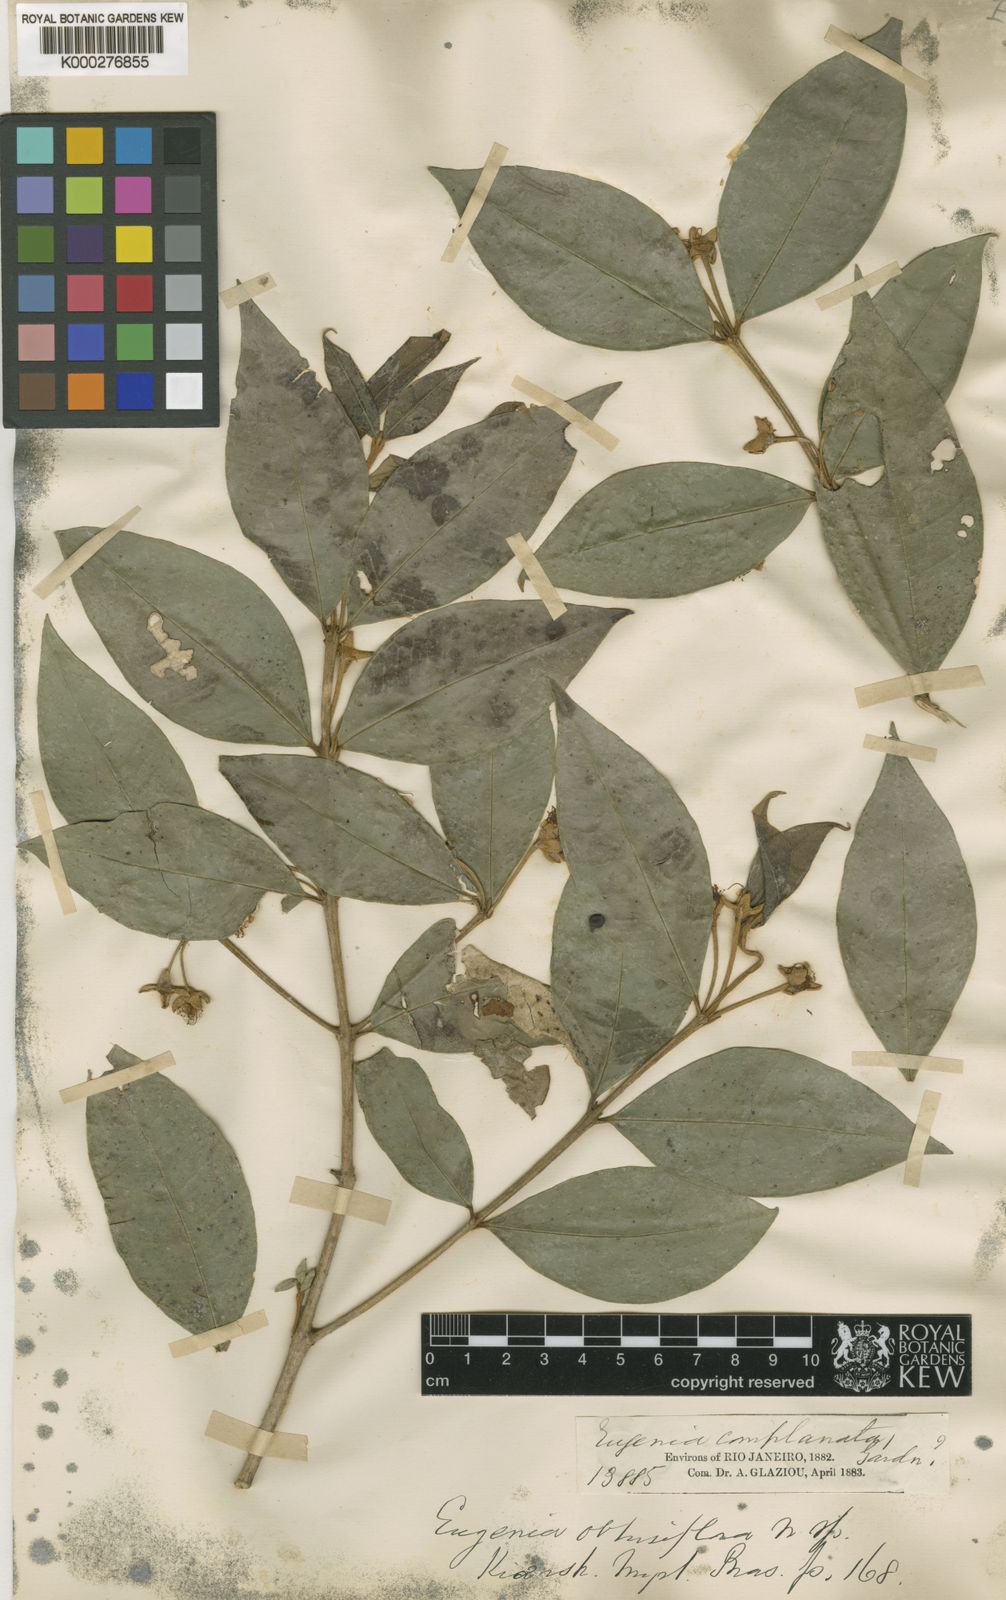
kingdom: Plantae
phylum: Tracheophyta
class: Magnoliopsida
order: Myrtales
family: Myrtaceae
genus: Myrceugenia
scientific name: Myrceugenia myrcioides
